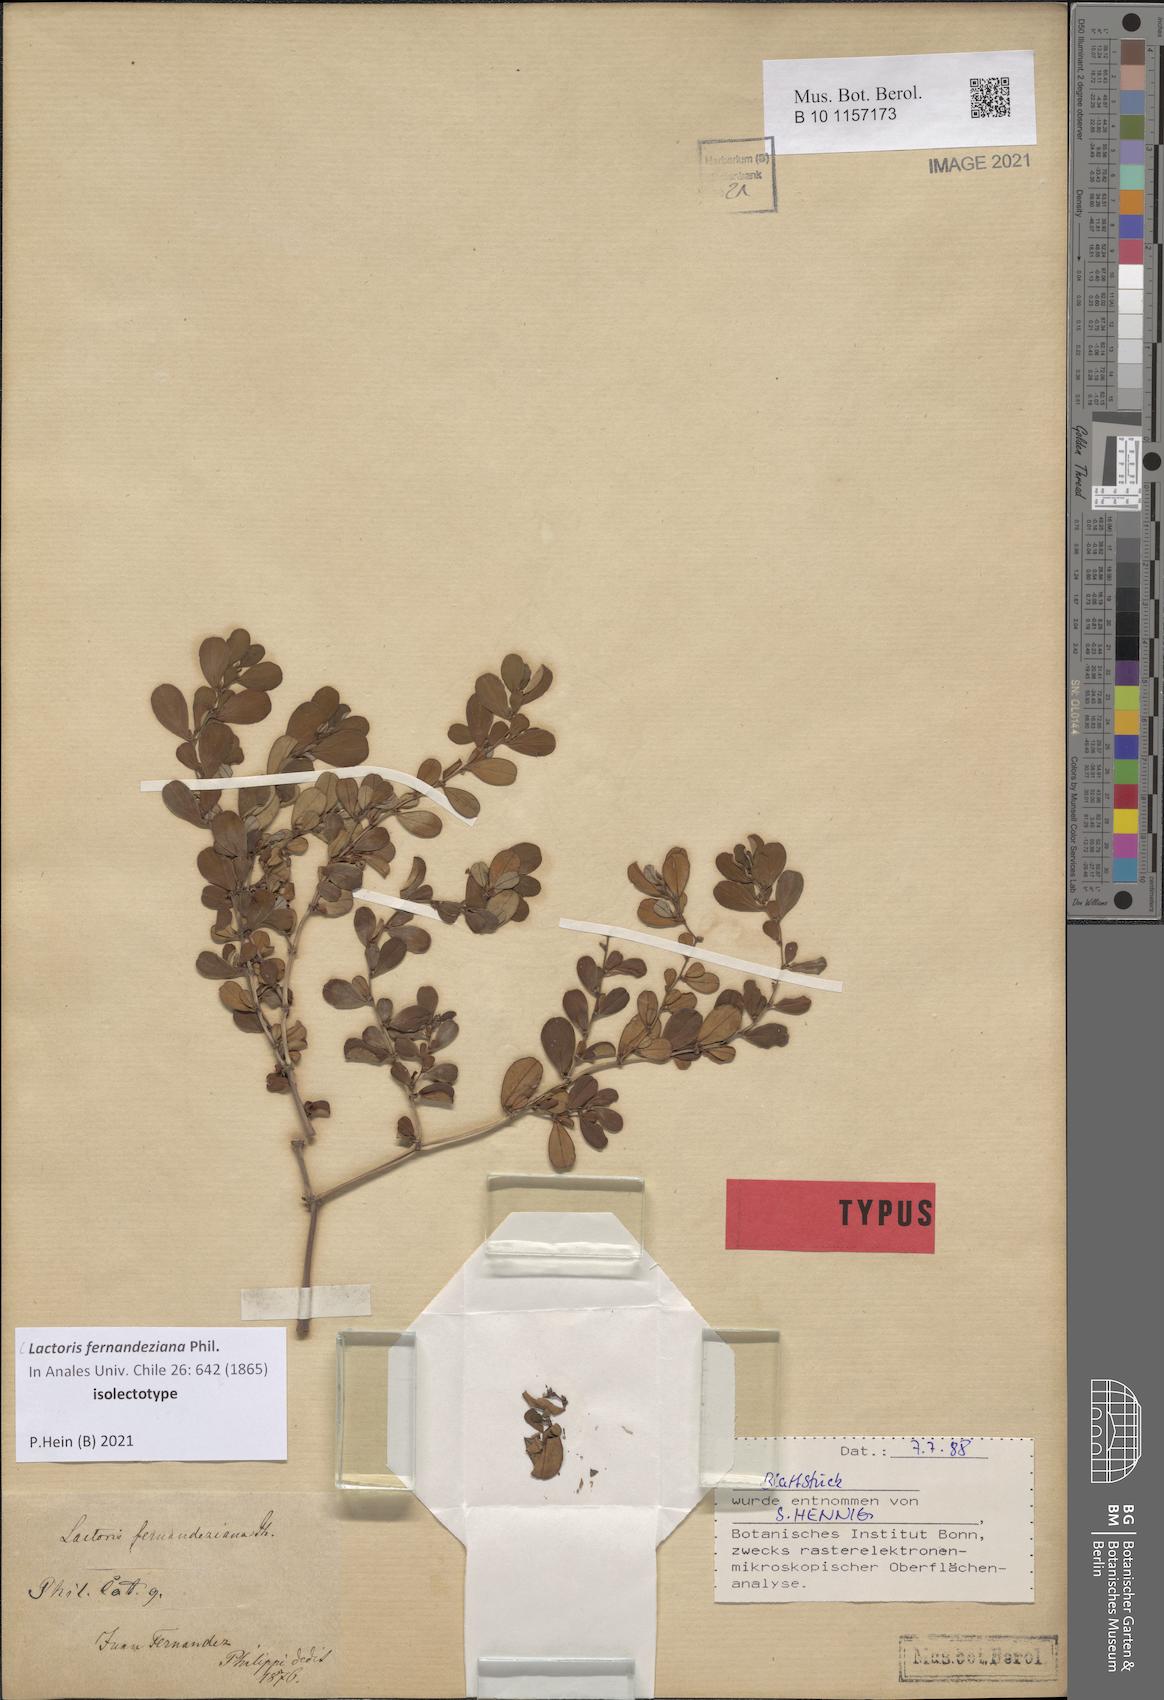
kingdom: Plantae
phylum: Tracheophyta
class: Magnoliopsida
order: Piperales
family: Aristolochiaceae
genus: Lactoris
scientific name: Lactoris fernandeziana
